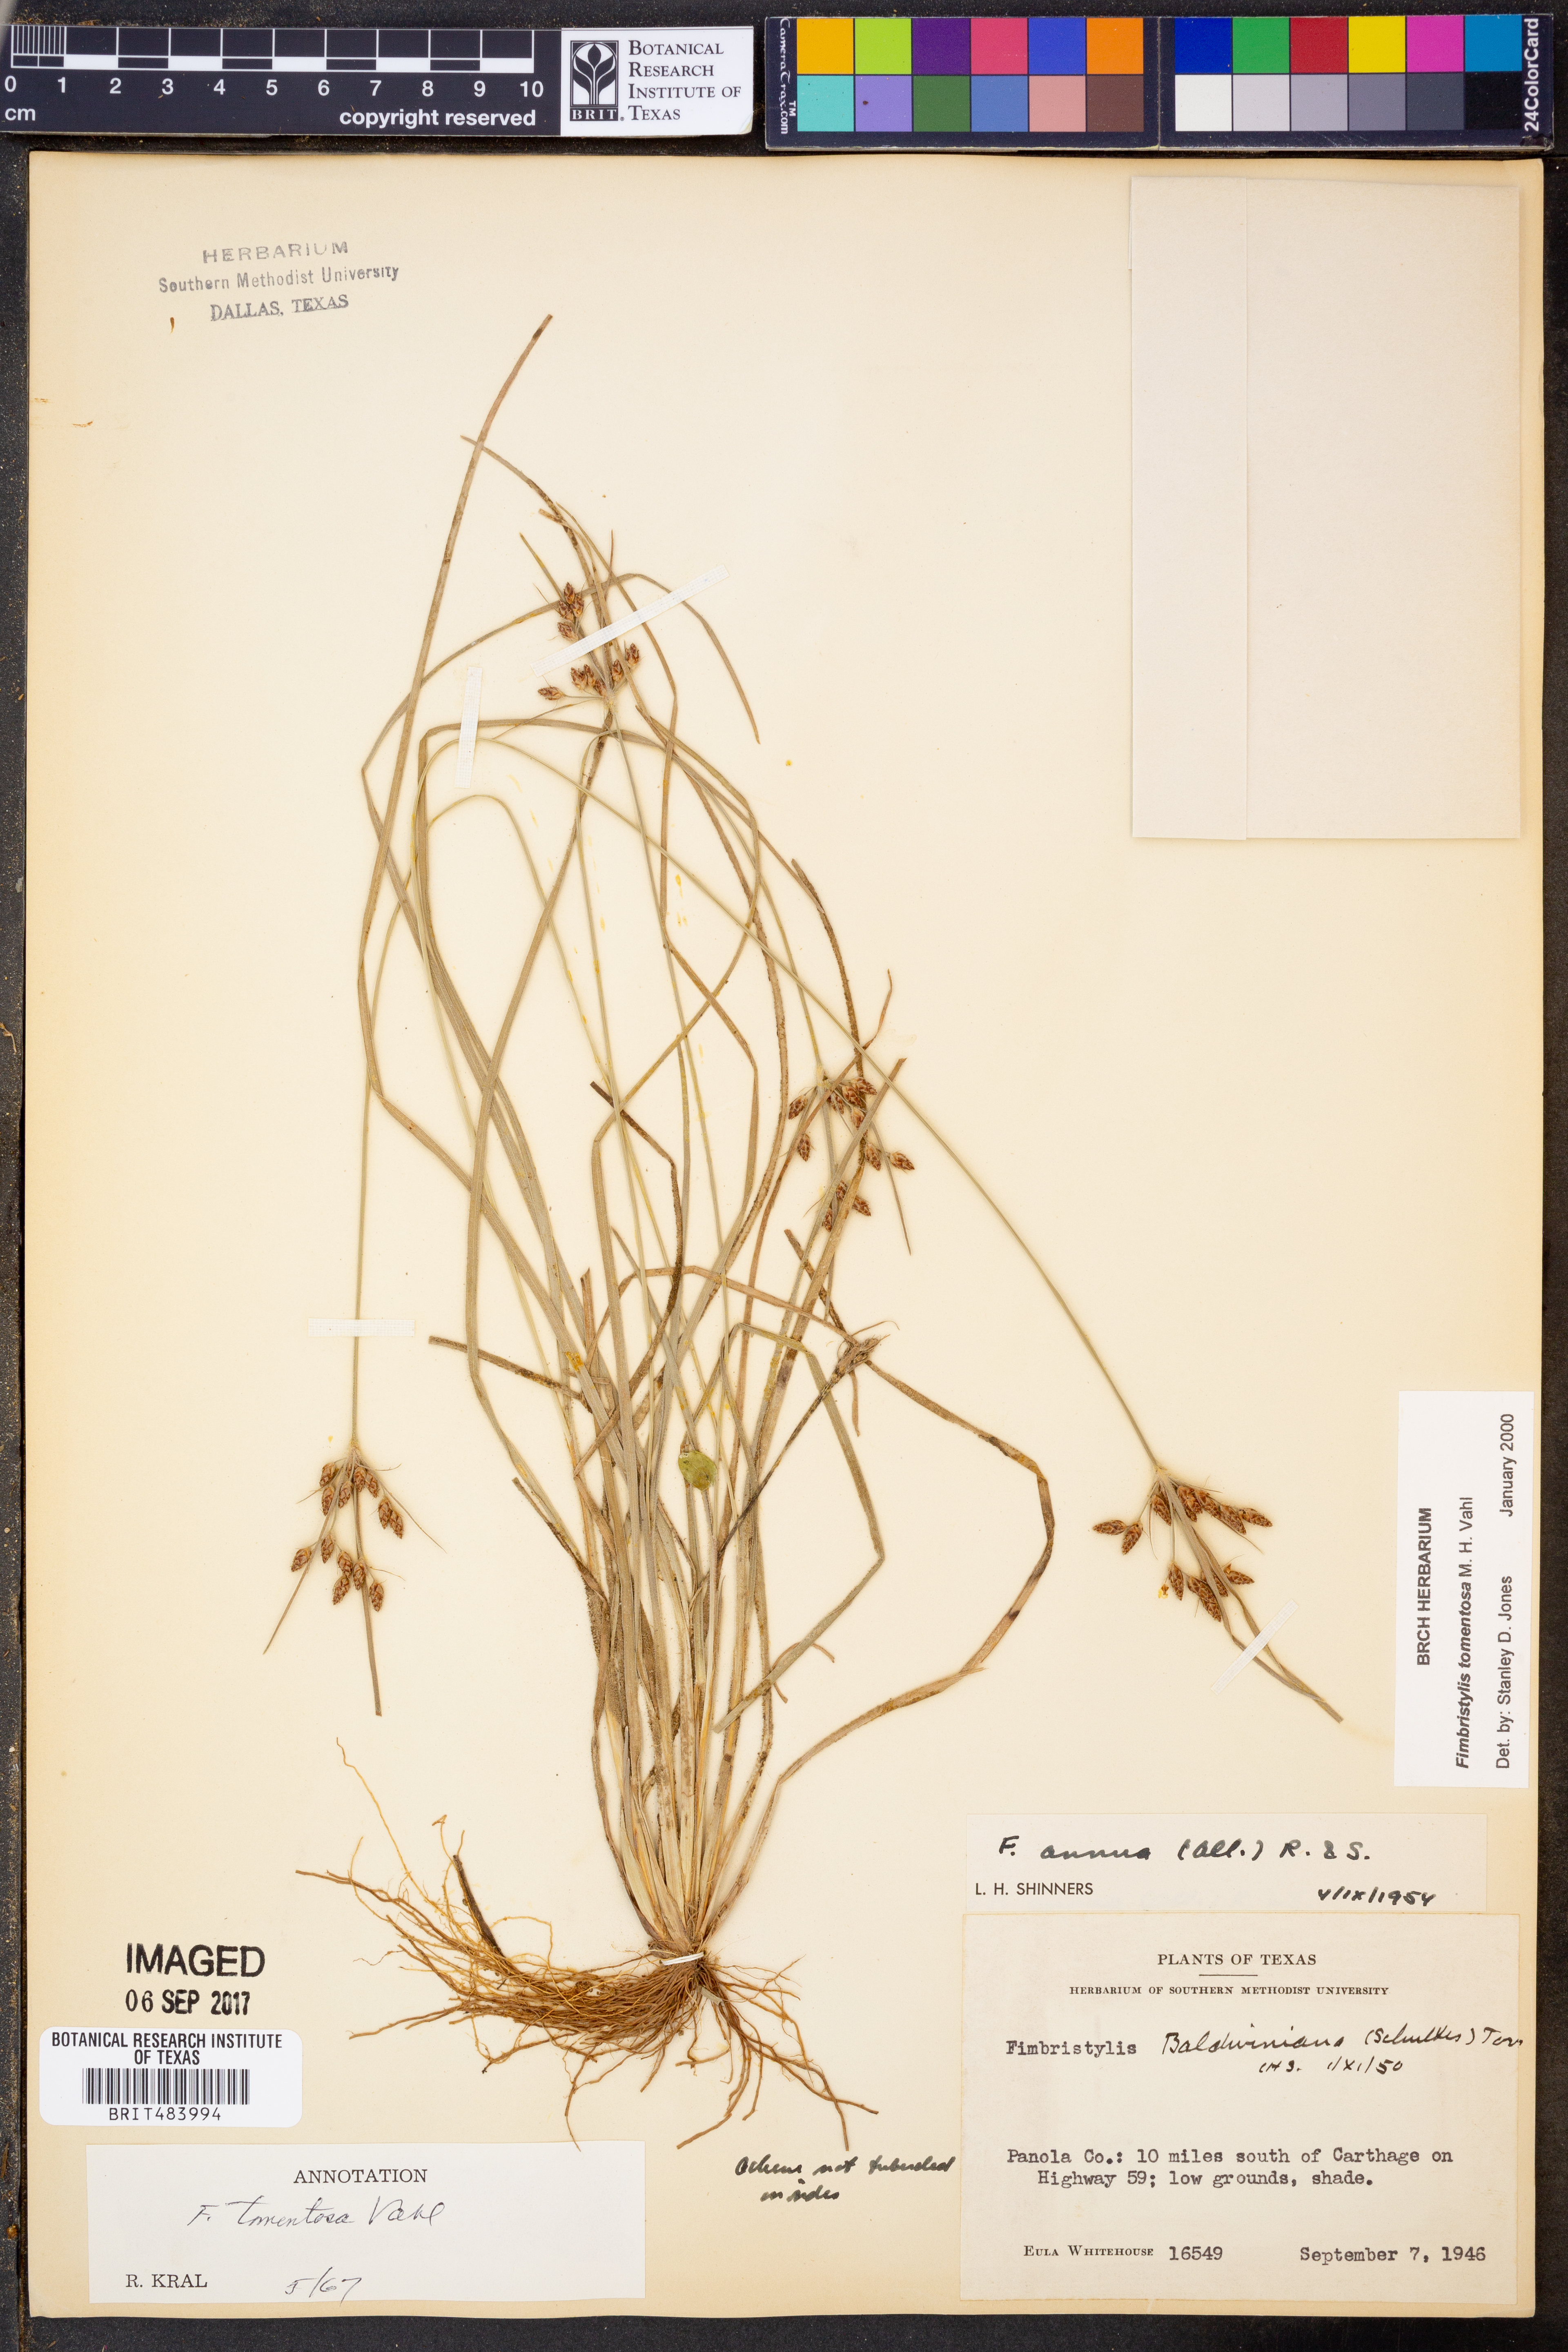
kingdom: Plantae
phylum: Tracheophyta
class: Liliopsida
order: Poales
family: Cyperaceae
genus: Fimbristylis
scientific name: Fimbristylis dichotoma
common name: Forked fimbry
